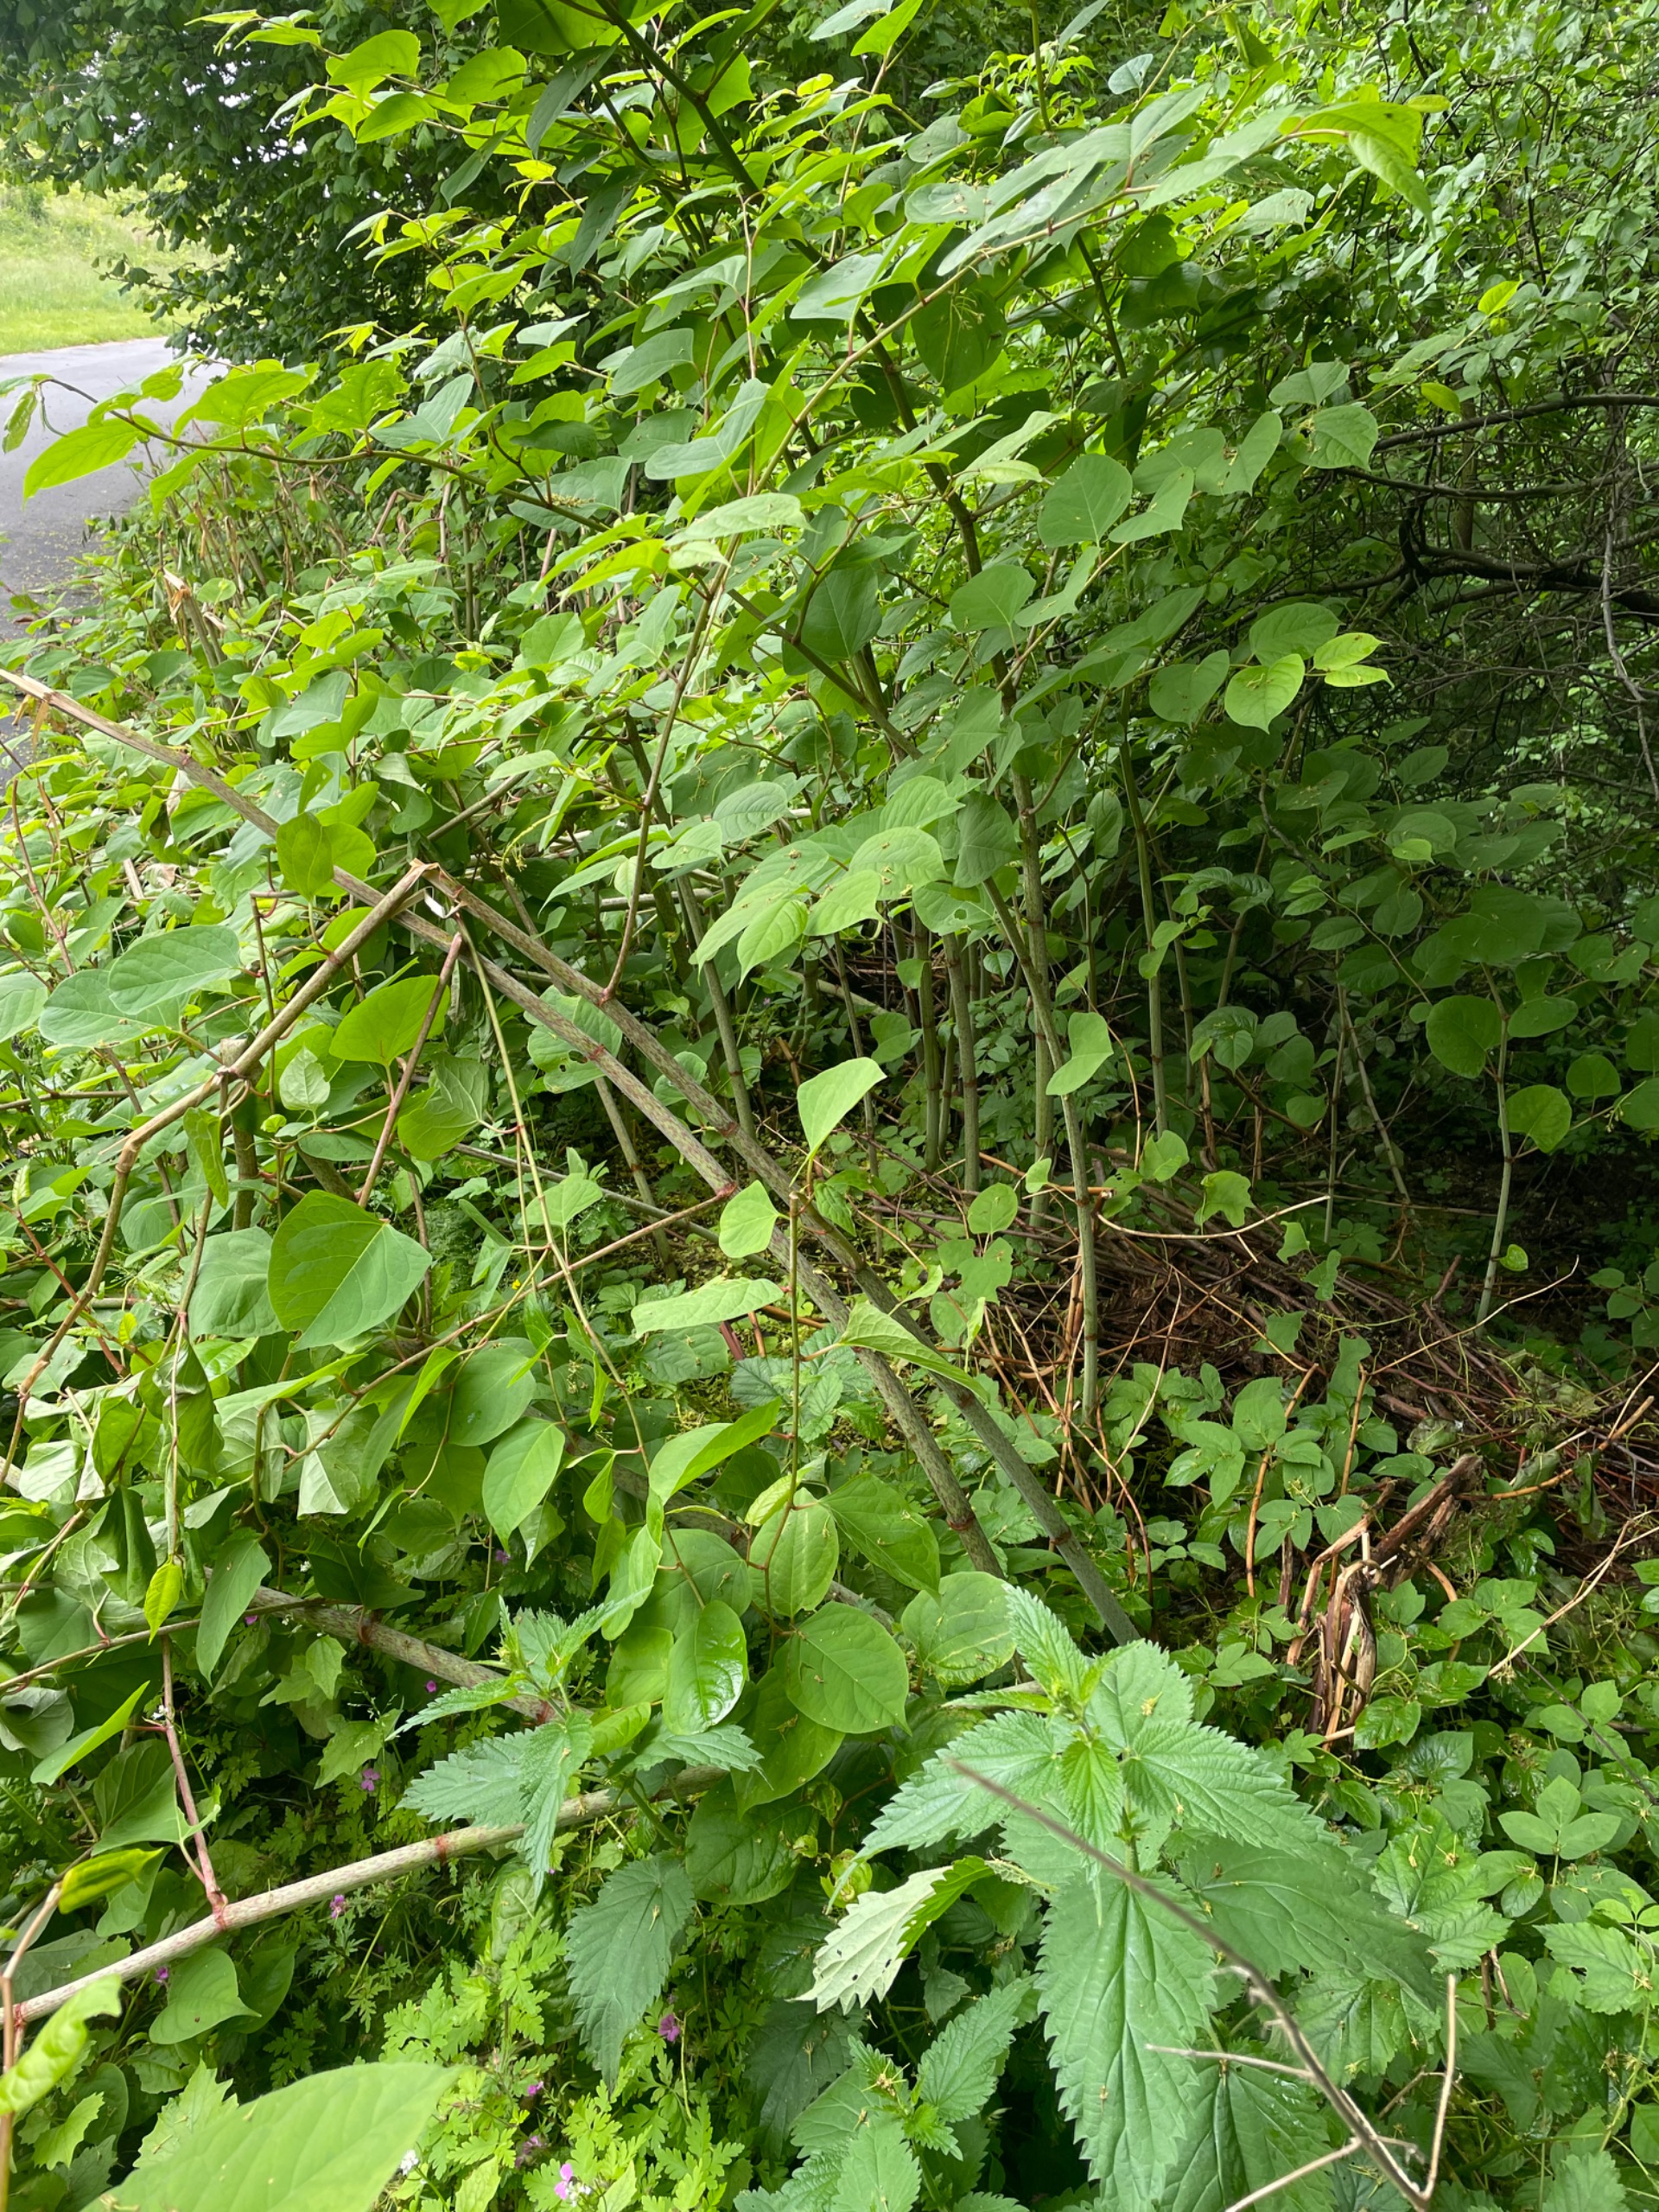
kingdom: Plantae
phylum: Tracheophyta
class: Magnoliopsida
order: Caryophyllales
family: Polygonaceae
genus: Reynoutria
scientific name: Reynoutria japonica
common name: Japan-pileurt
